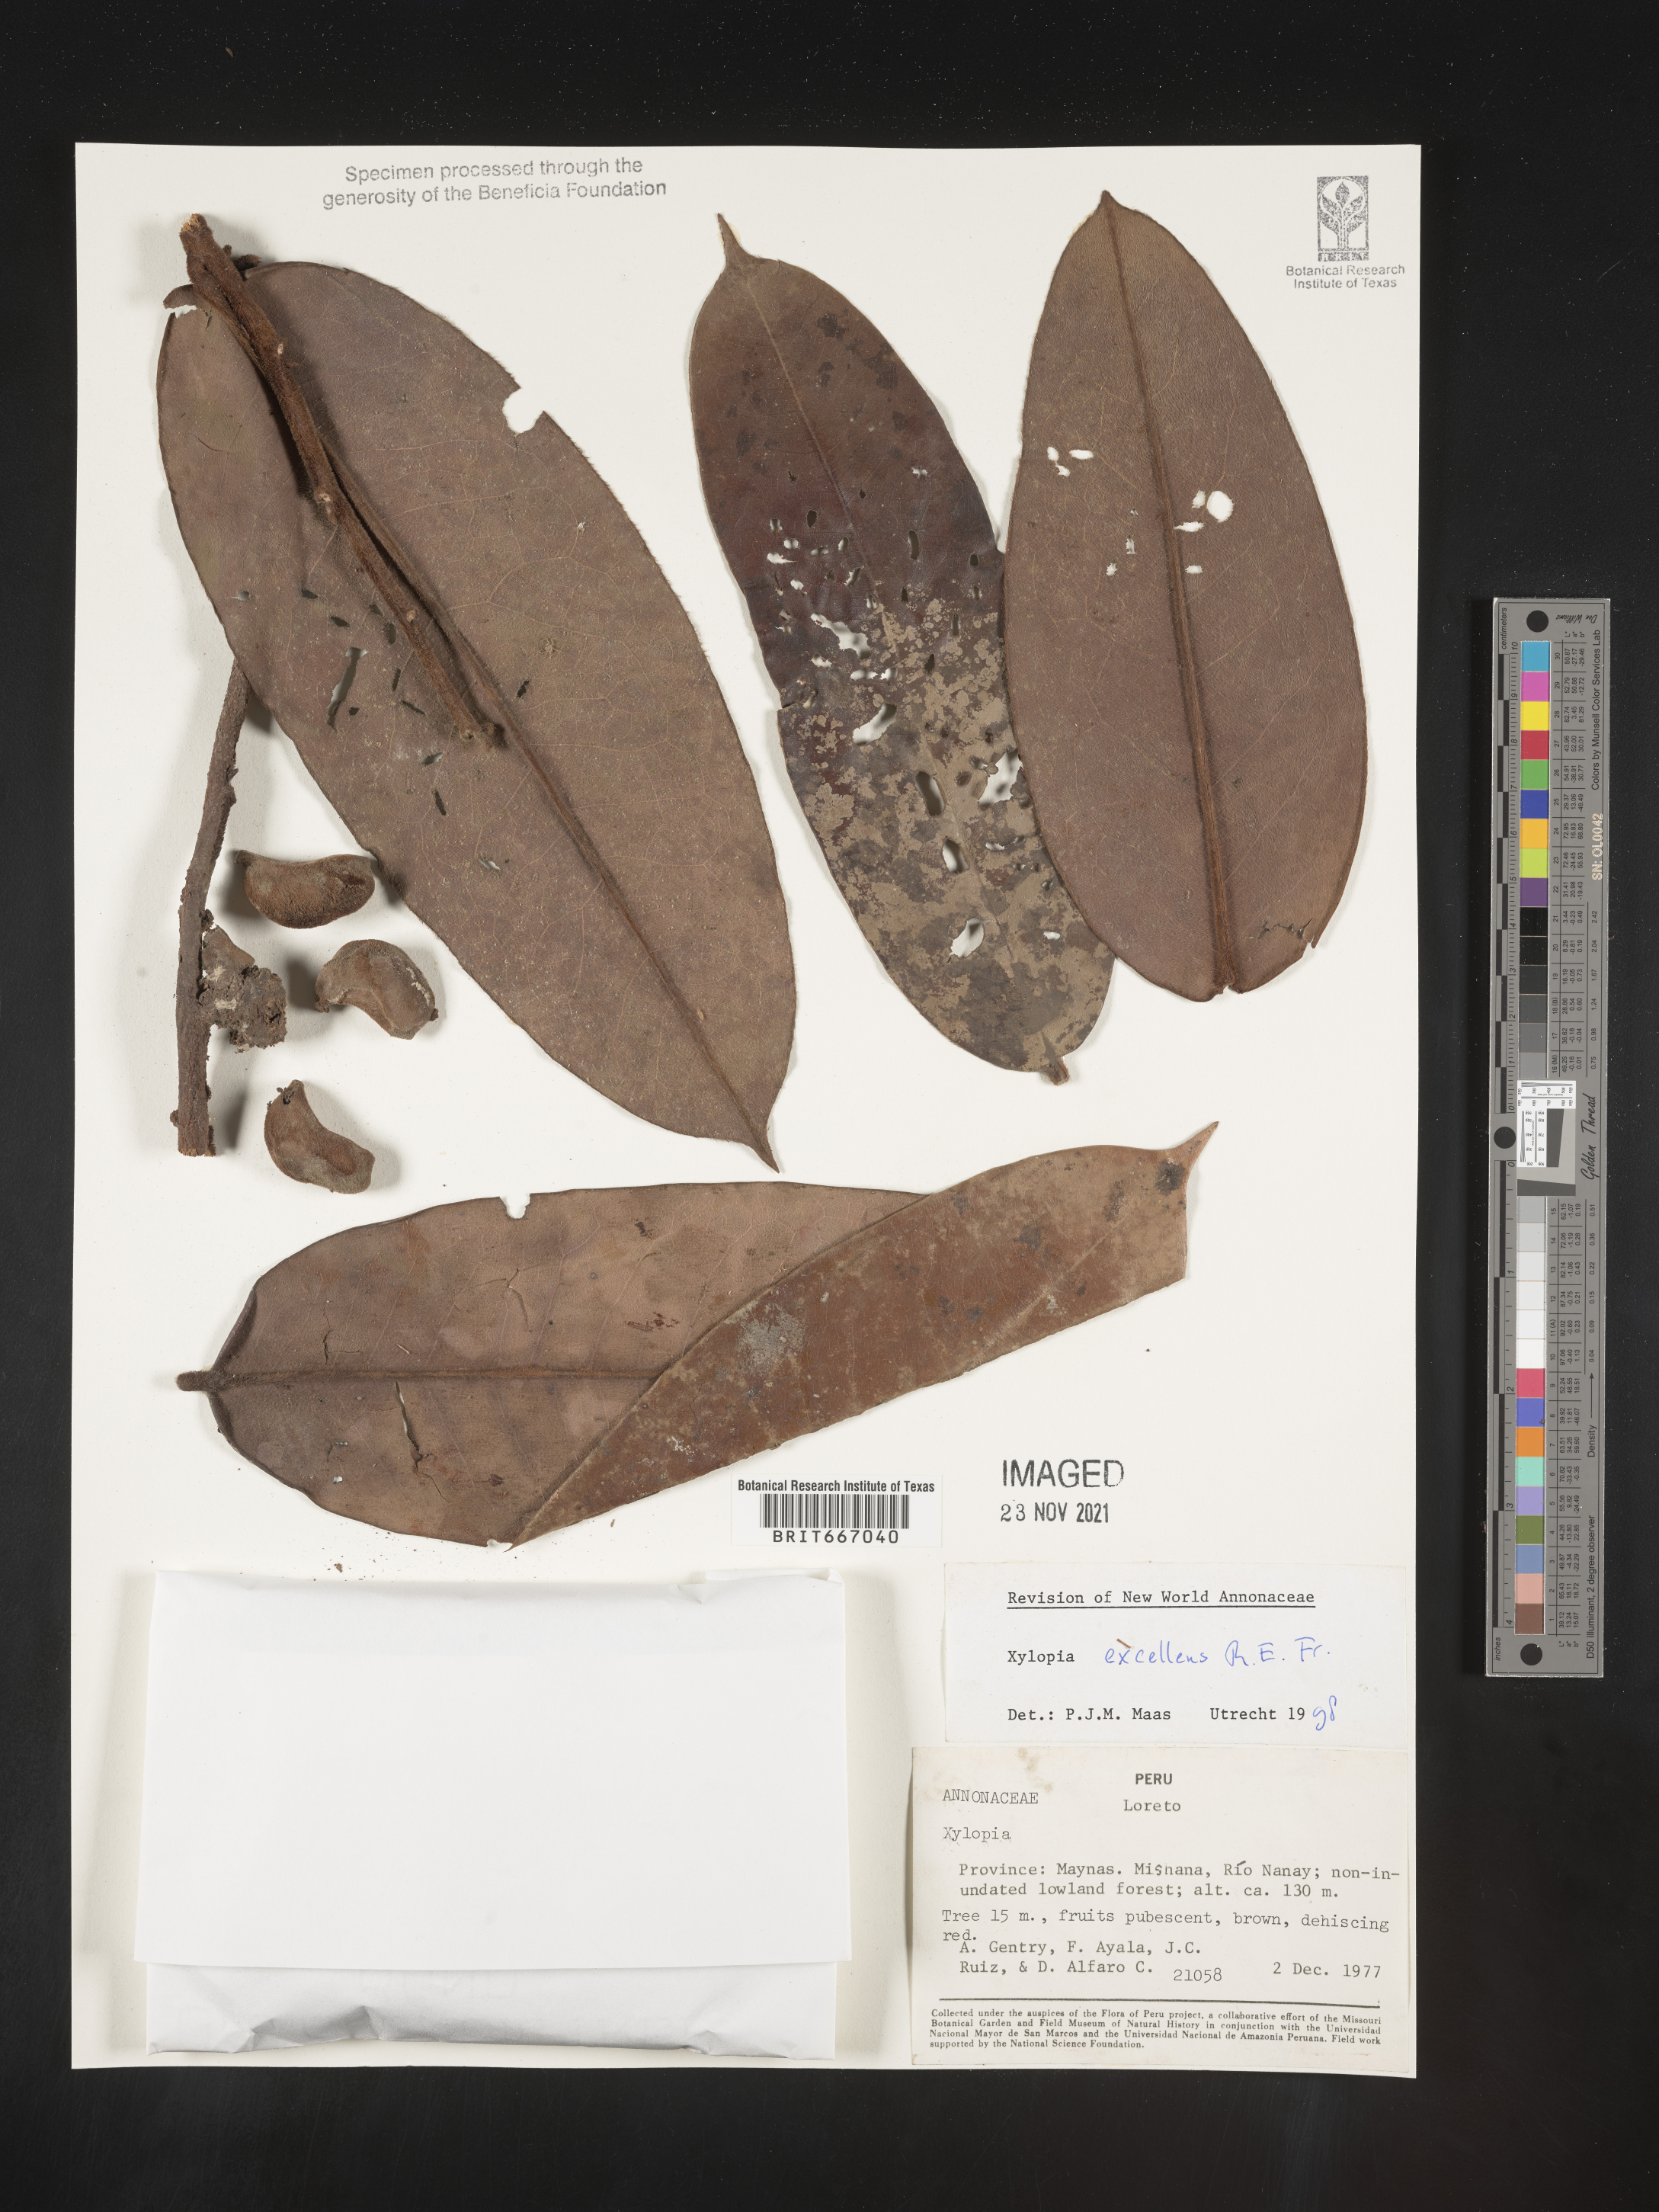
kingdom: Plantae
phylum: Tracheophyta
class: Magnoliopsida
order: Magnoliales
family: Annonaceae
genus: Xylopia
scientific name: Xylopia
